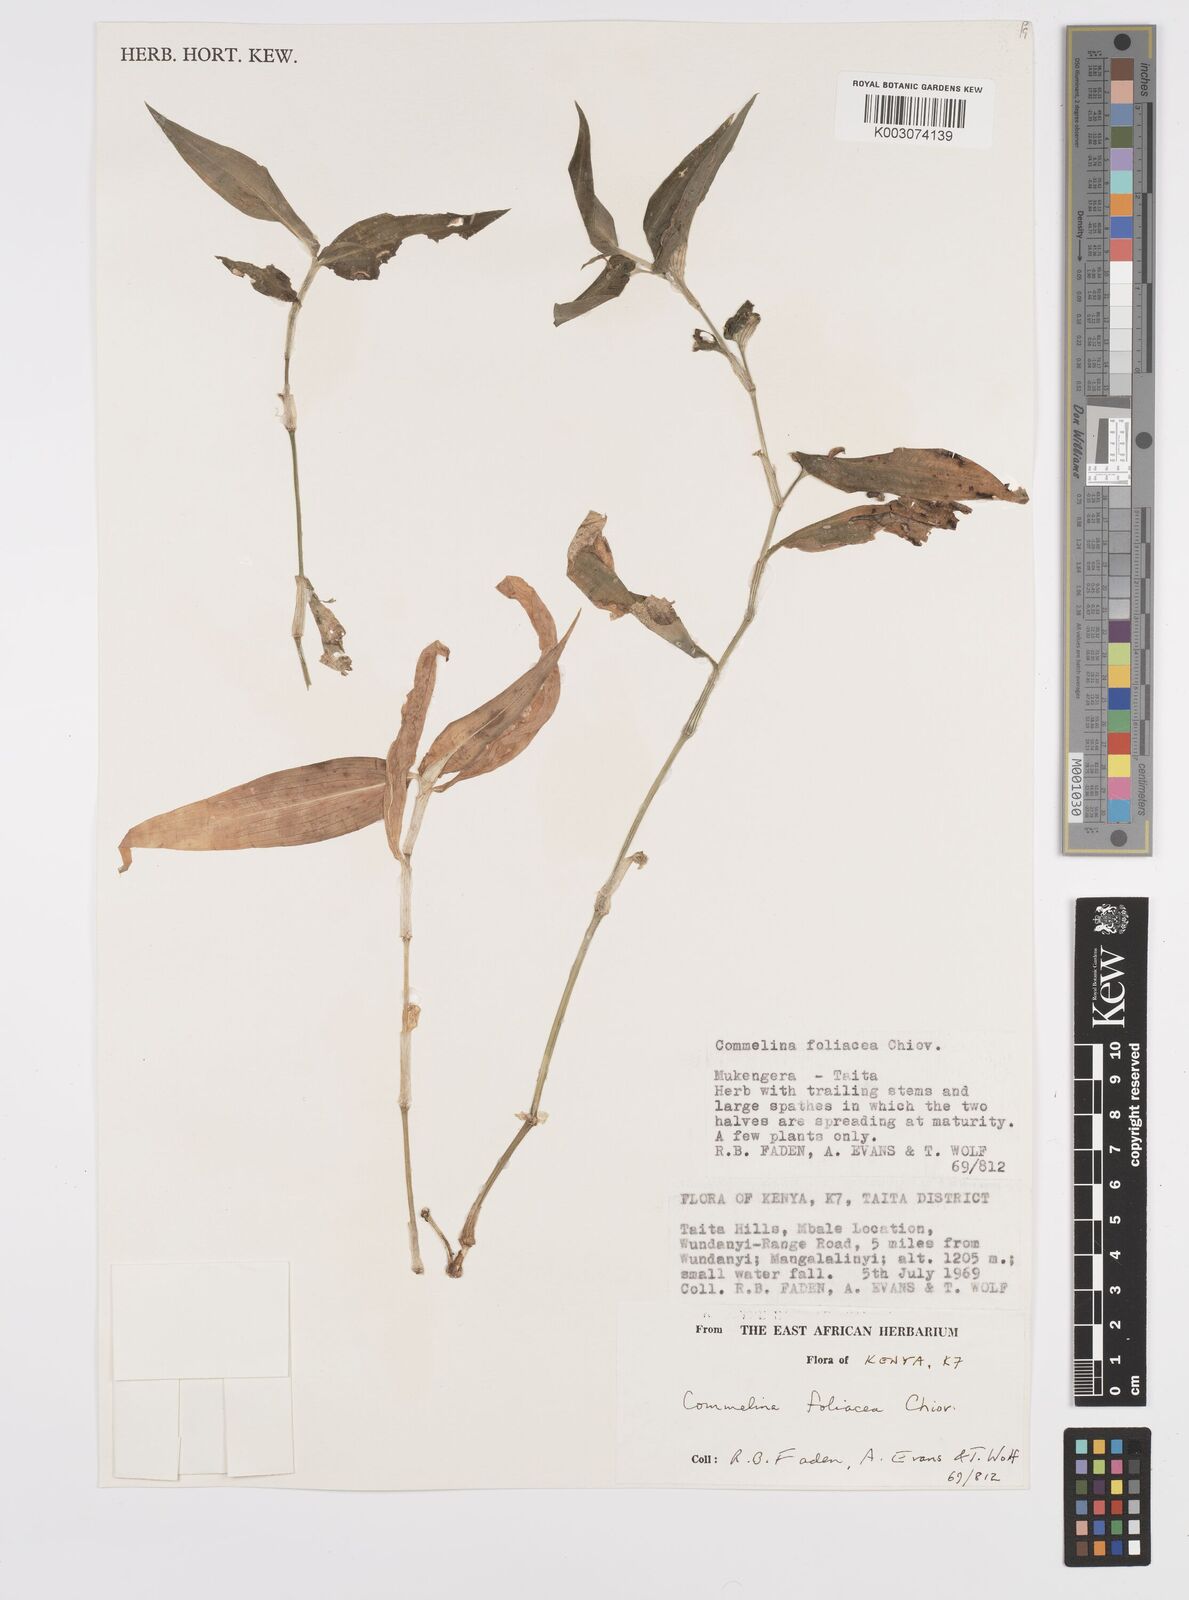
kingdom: Plantae
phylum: Tracheophyta
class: Liliopsida
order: Commelinales
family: Commelinaceae
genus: Commelina
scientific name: Commelina foliacea
